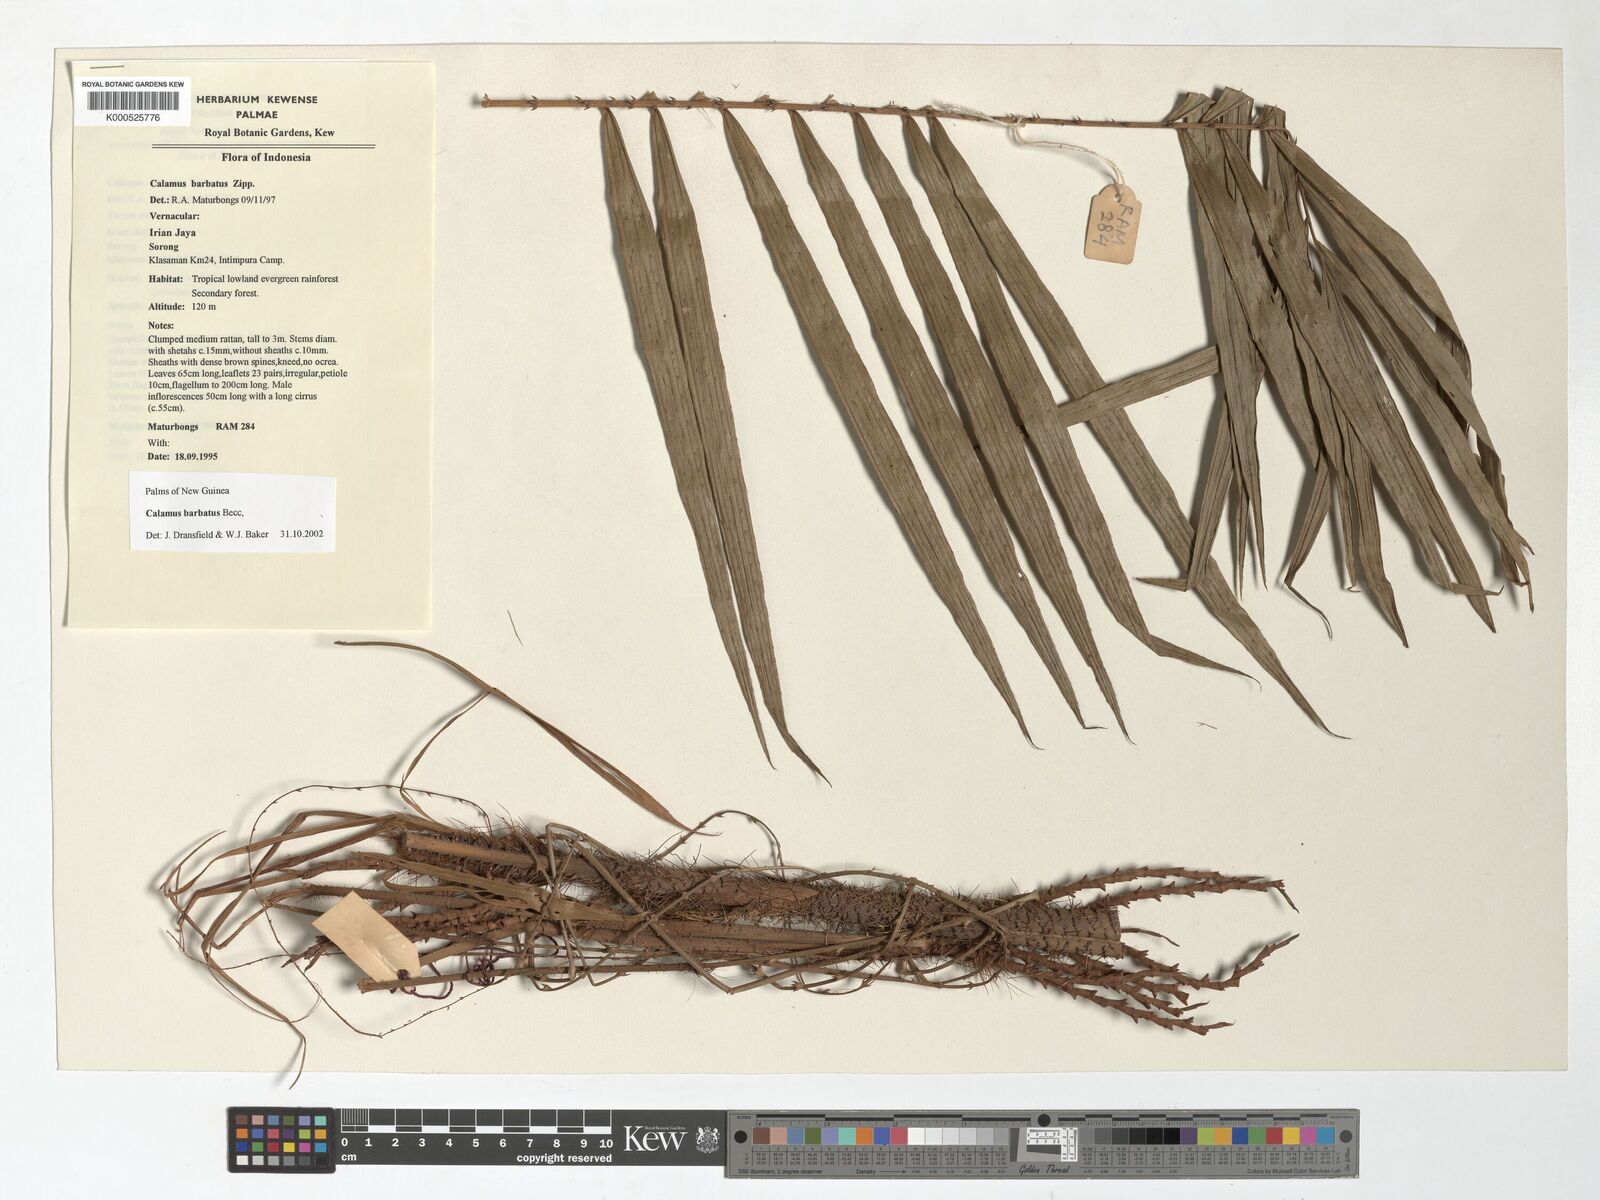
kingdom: Plantae
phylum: Tracheophyta
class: Liliopsida
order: Arecales
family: Arecaceae
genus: Calamus
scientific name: Calamus
